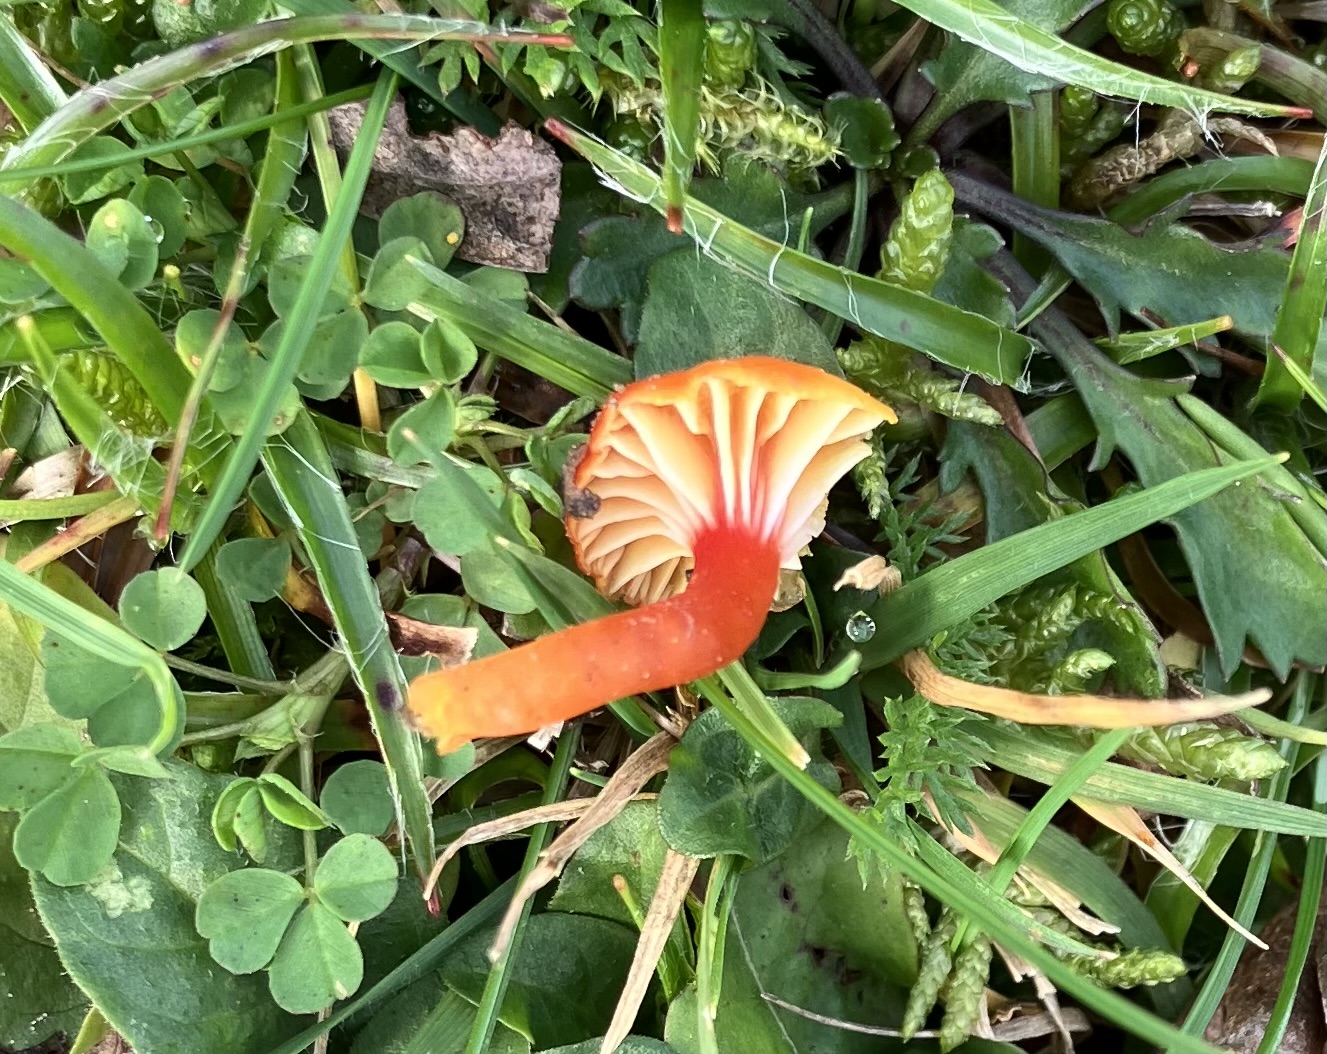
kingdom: Fungi
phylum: Basidiomycota
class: Agaricomycetes
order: Agaricales
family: Hygrophoraceae
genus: Hygrocybe
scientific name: Hygrocybe insipida
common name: liden vokshat
